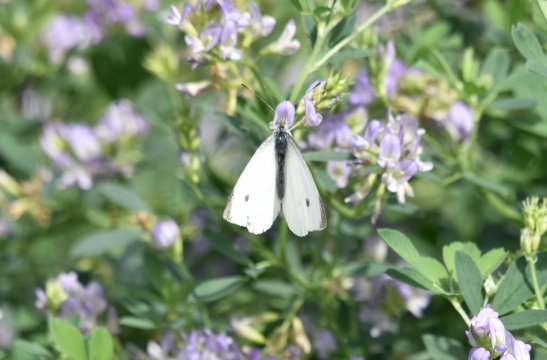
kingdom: Animalia
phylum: Arthropoda
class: Insecta
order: Lepidoptera
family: Pieridae
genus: Pieris
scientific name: Pieris rapae
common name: Cabbage White
